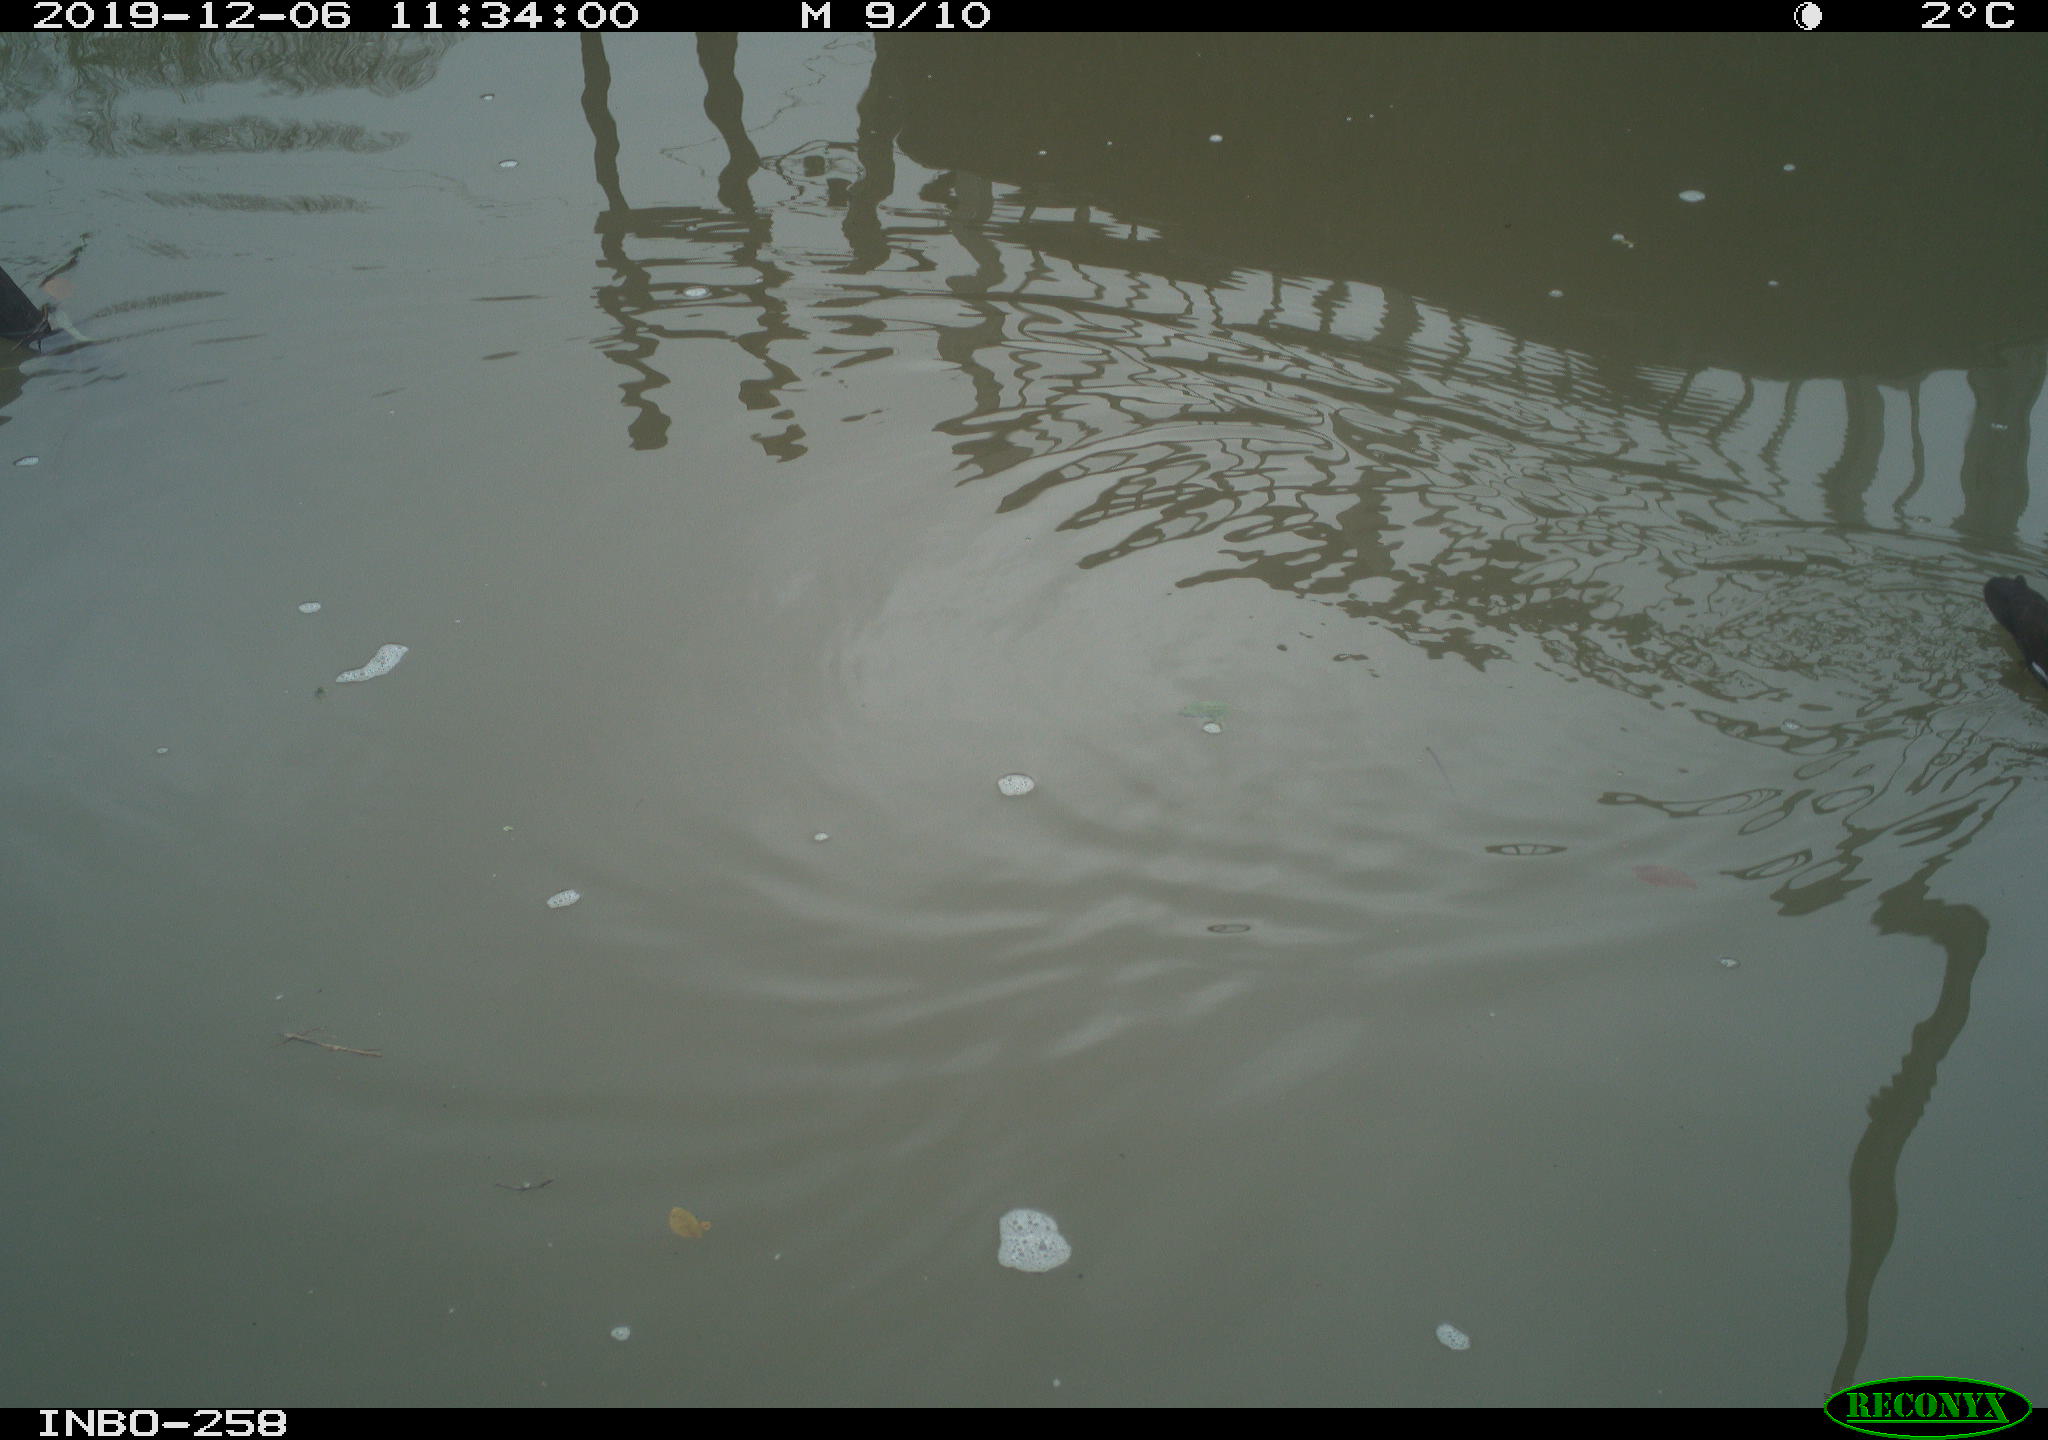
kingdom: Animalia
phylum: Chordata
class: Aves
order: Gruiformes
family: Rallidae
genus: Gallinula
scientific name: Gallinula chloropus
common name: Common moorhen
